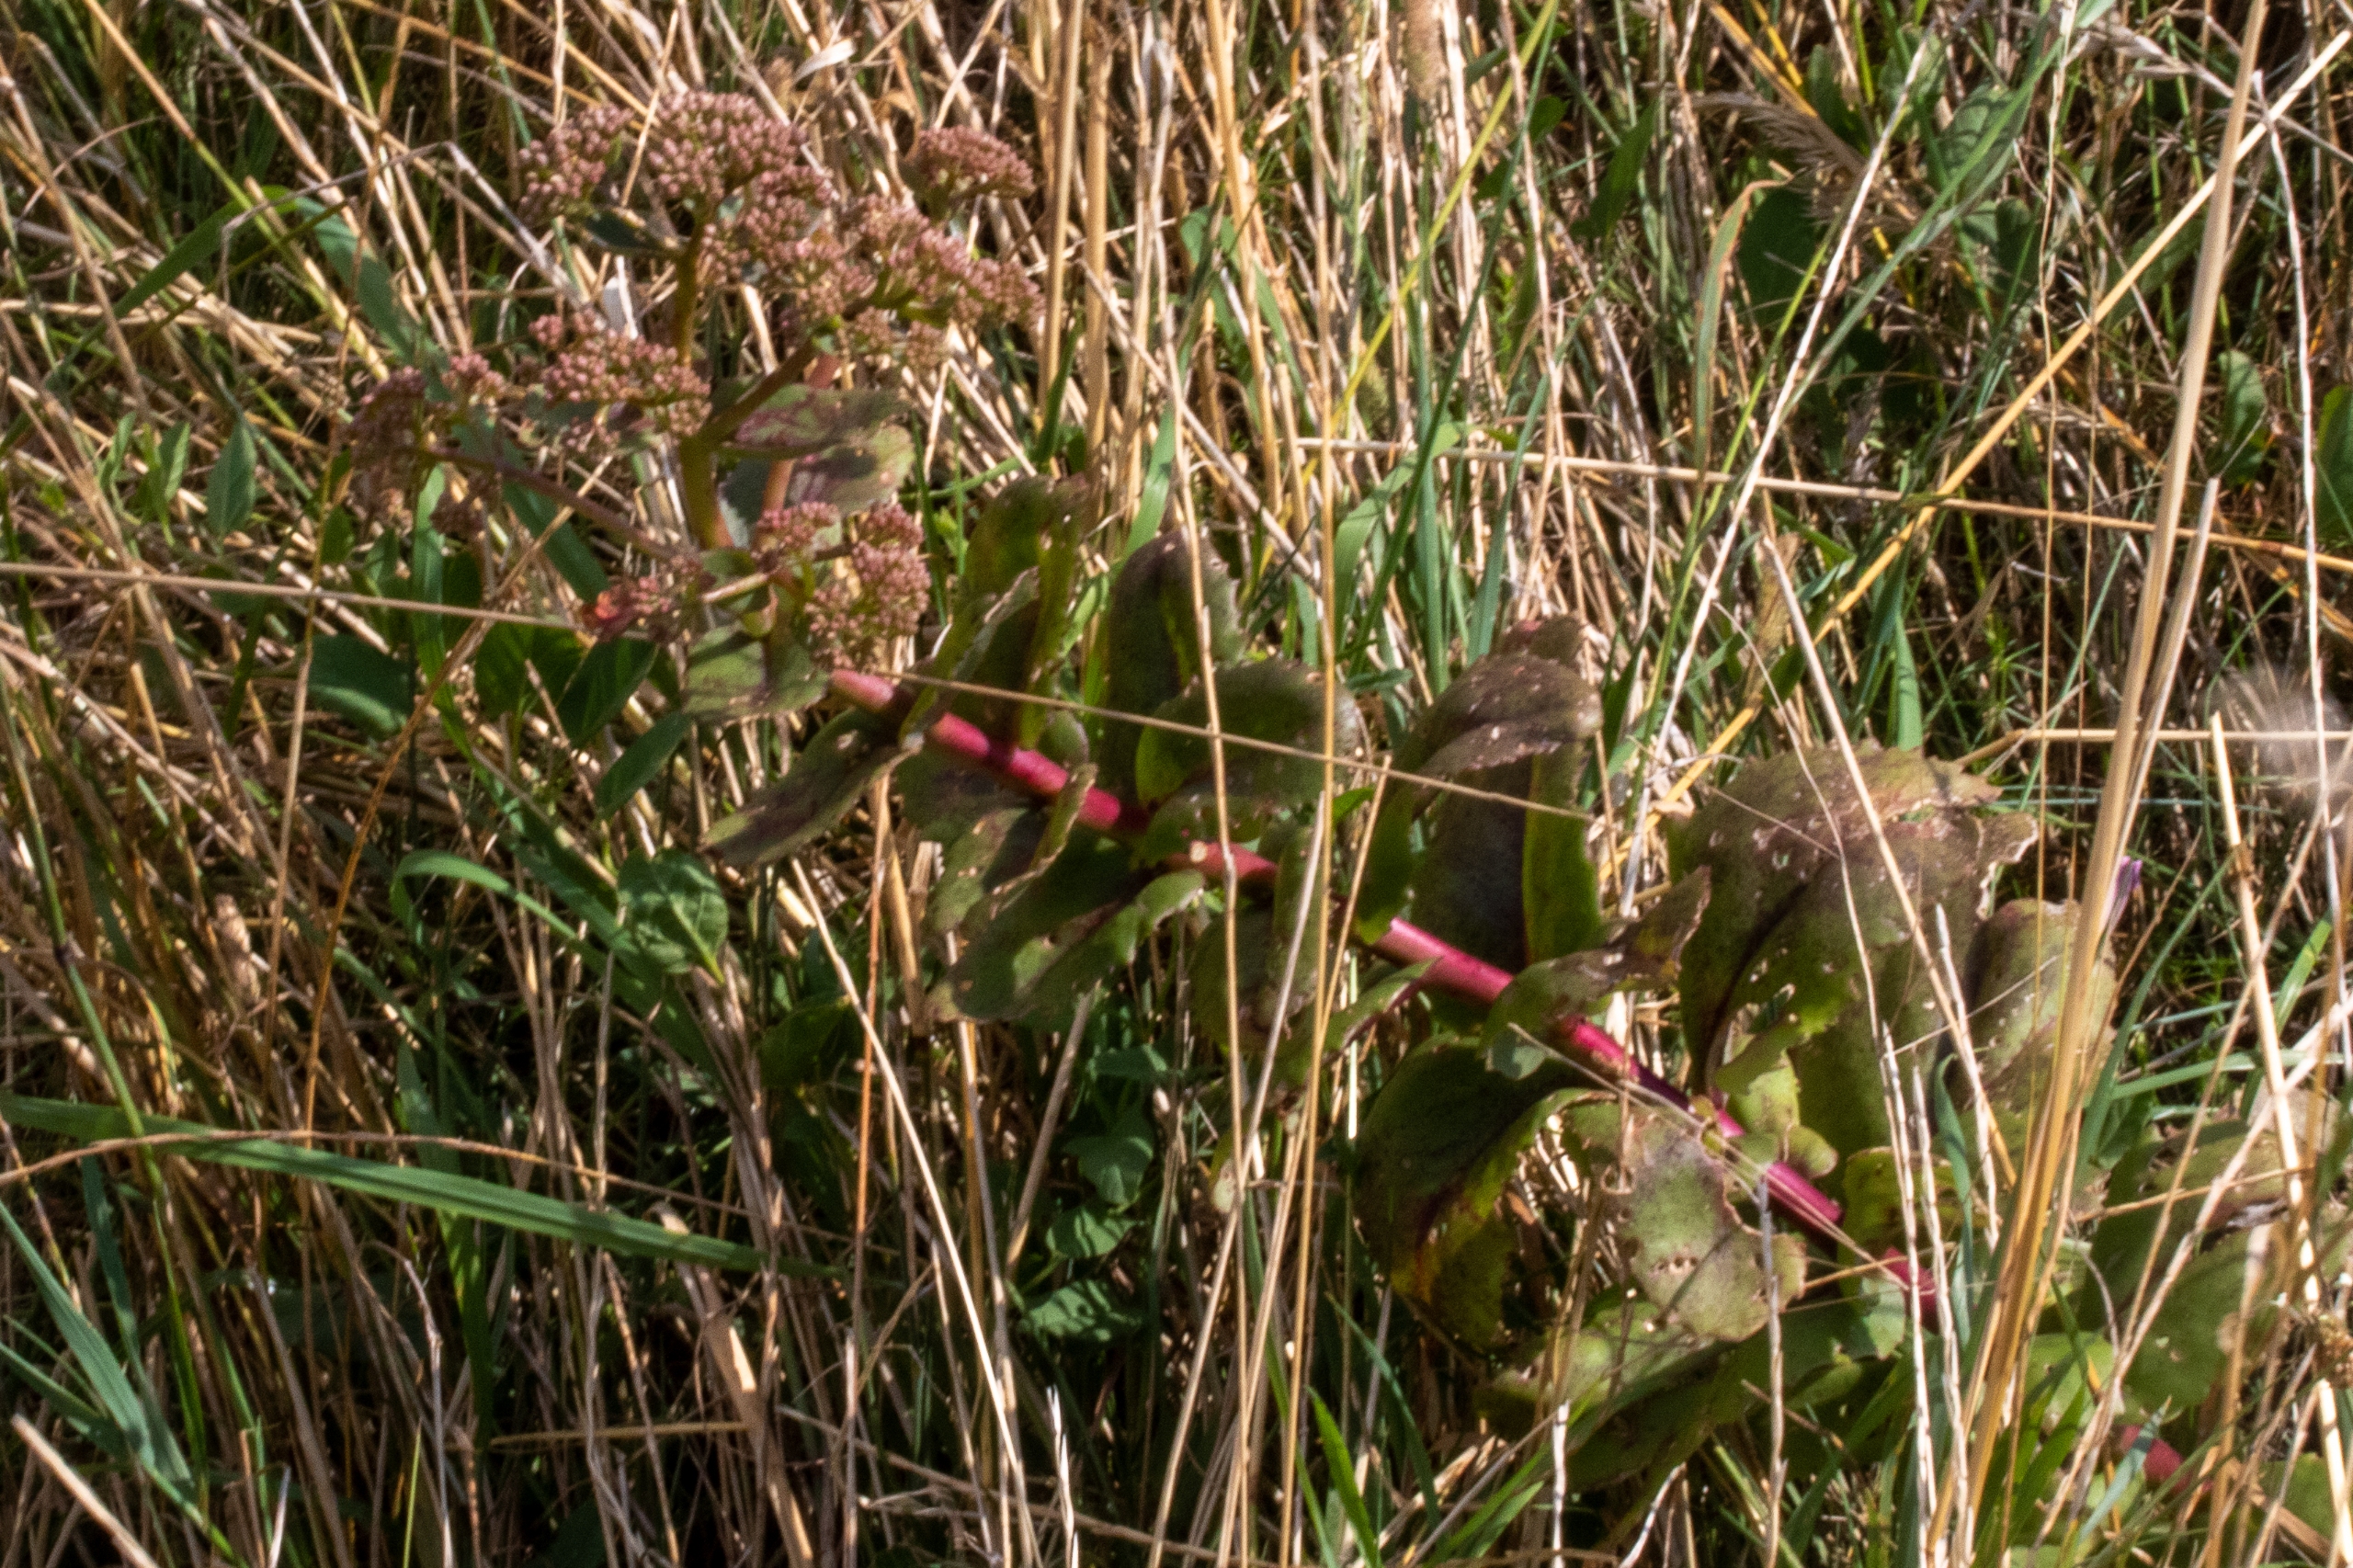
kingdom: Plantae
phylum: Tracheophyta
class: Magnoliopsida
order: Saxifragales
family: Crassulaceae
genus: Hylotelephium
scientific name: Hylotelephium telephium
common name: Sankthansurt
